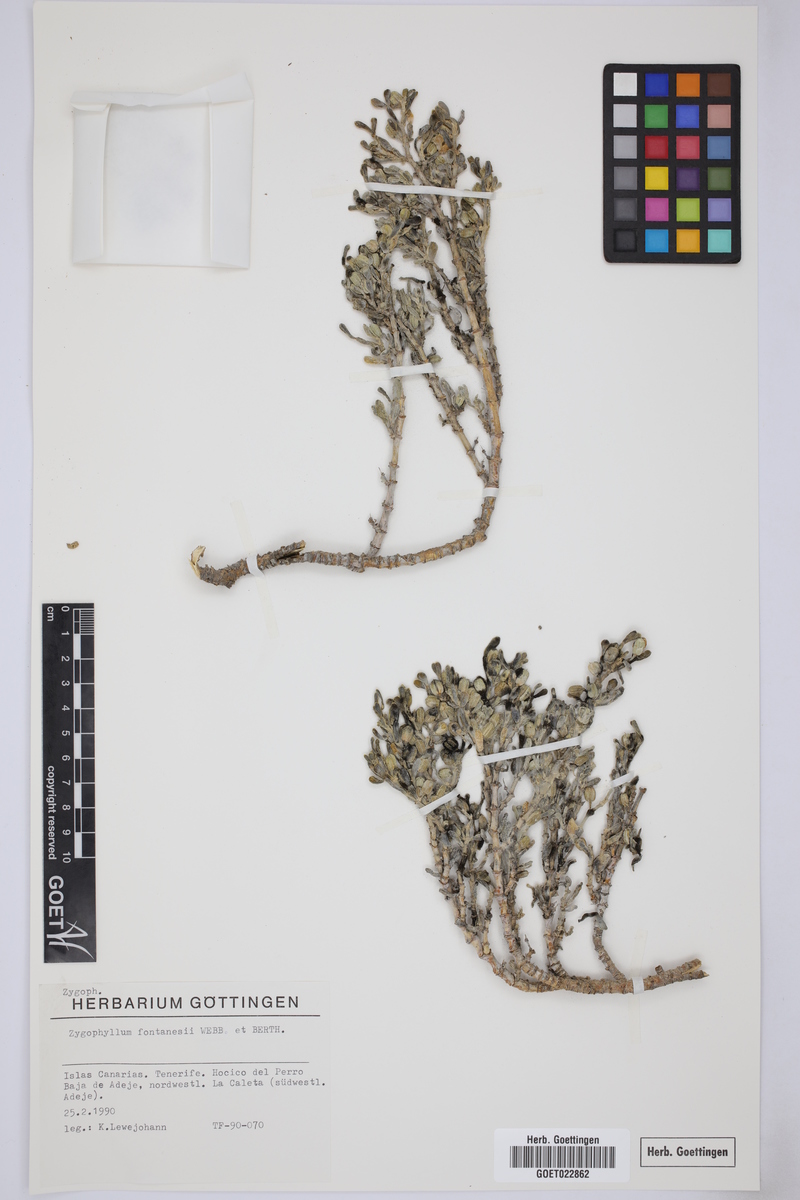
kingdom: Plantae
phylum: Tracheophyta
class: Magnoliopsida
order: Zygophyllales
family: Zygophyllaceae
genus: Tetraena
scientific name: Tetraena fontanesii
